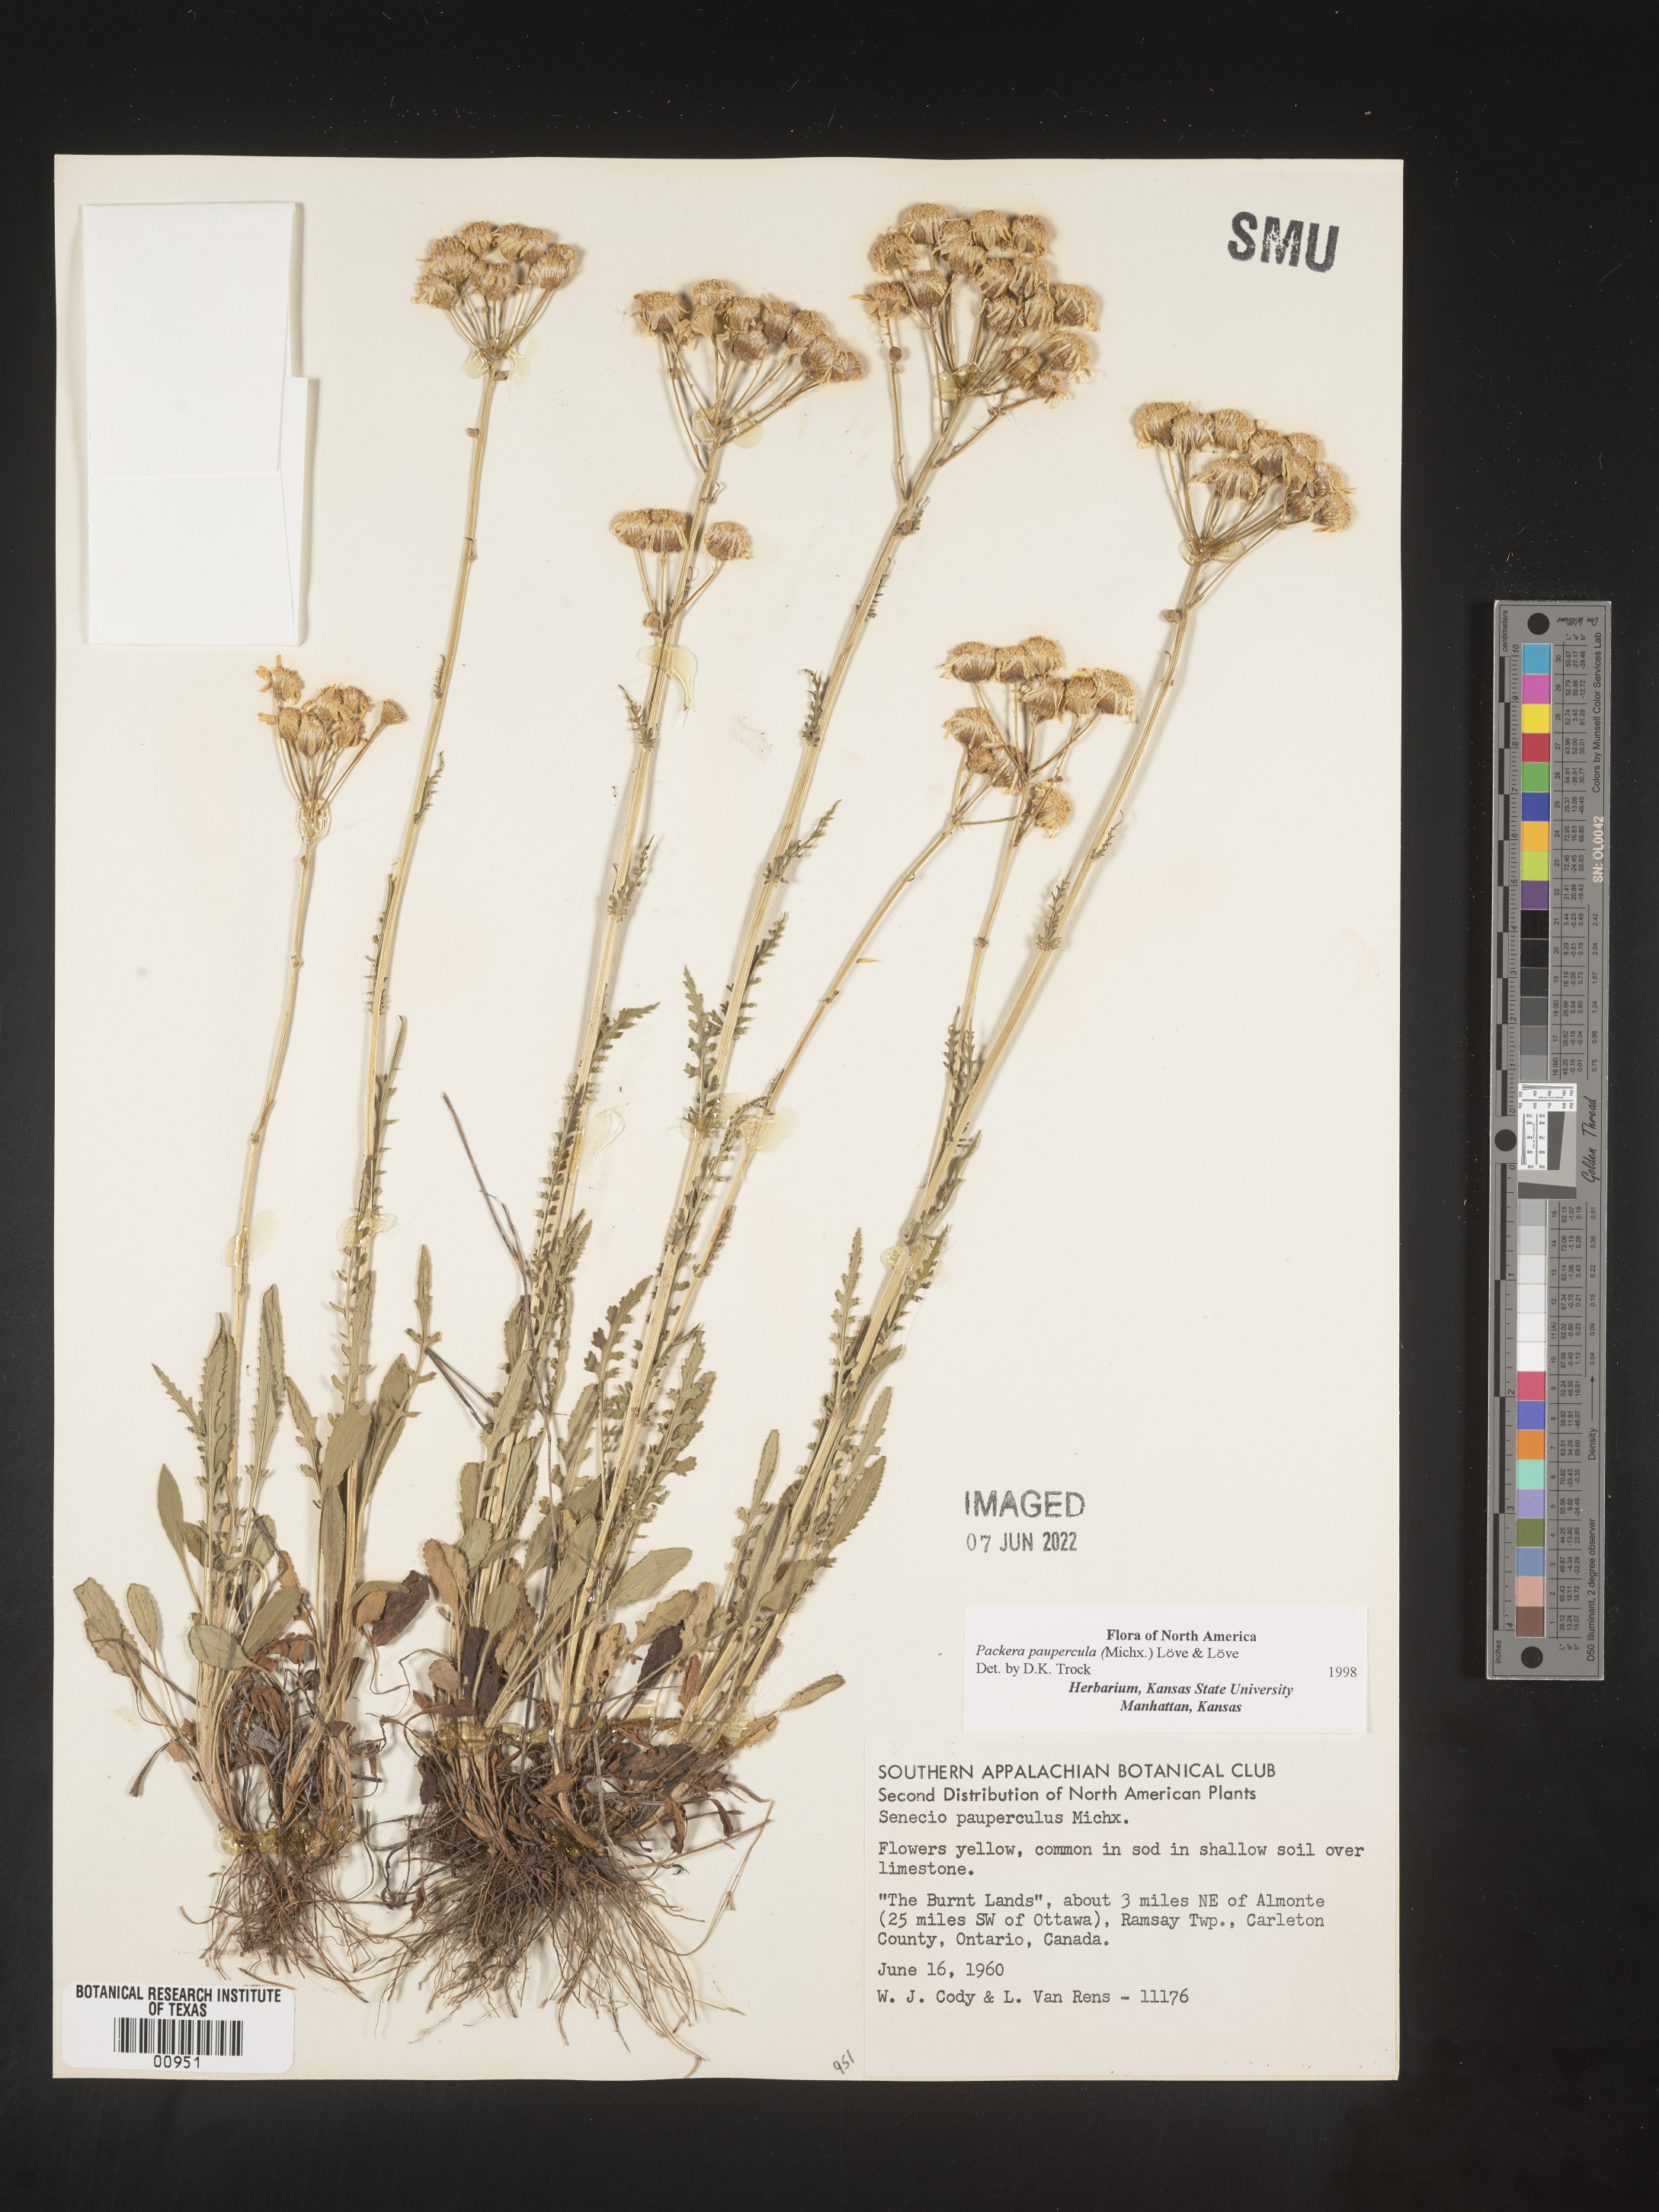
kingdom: Plantae
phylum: Tracheophyta
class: Magnoliopsida
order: Asterales
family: Asteraceae
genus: Packera
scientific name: Packera paupercula
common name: Balsam groundsel
